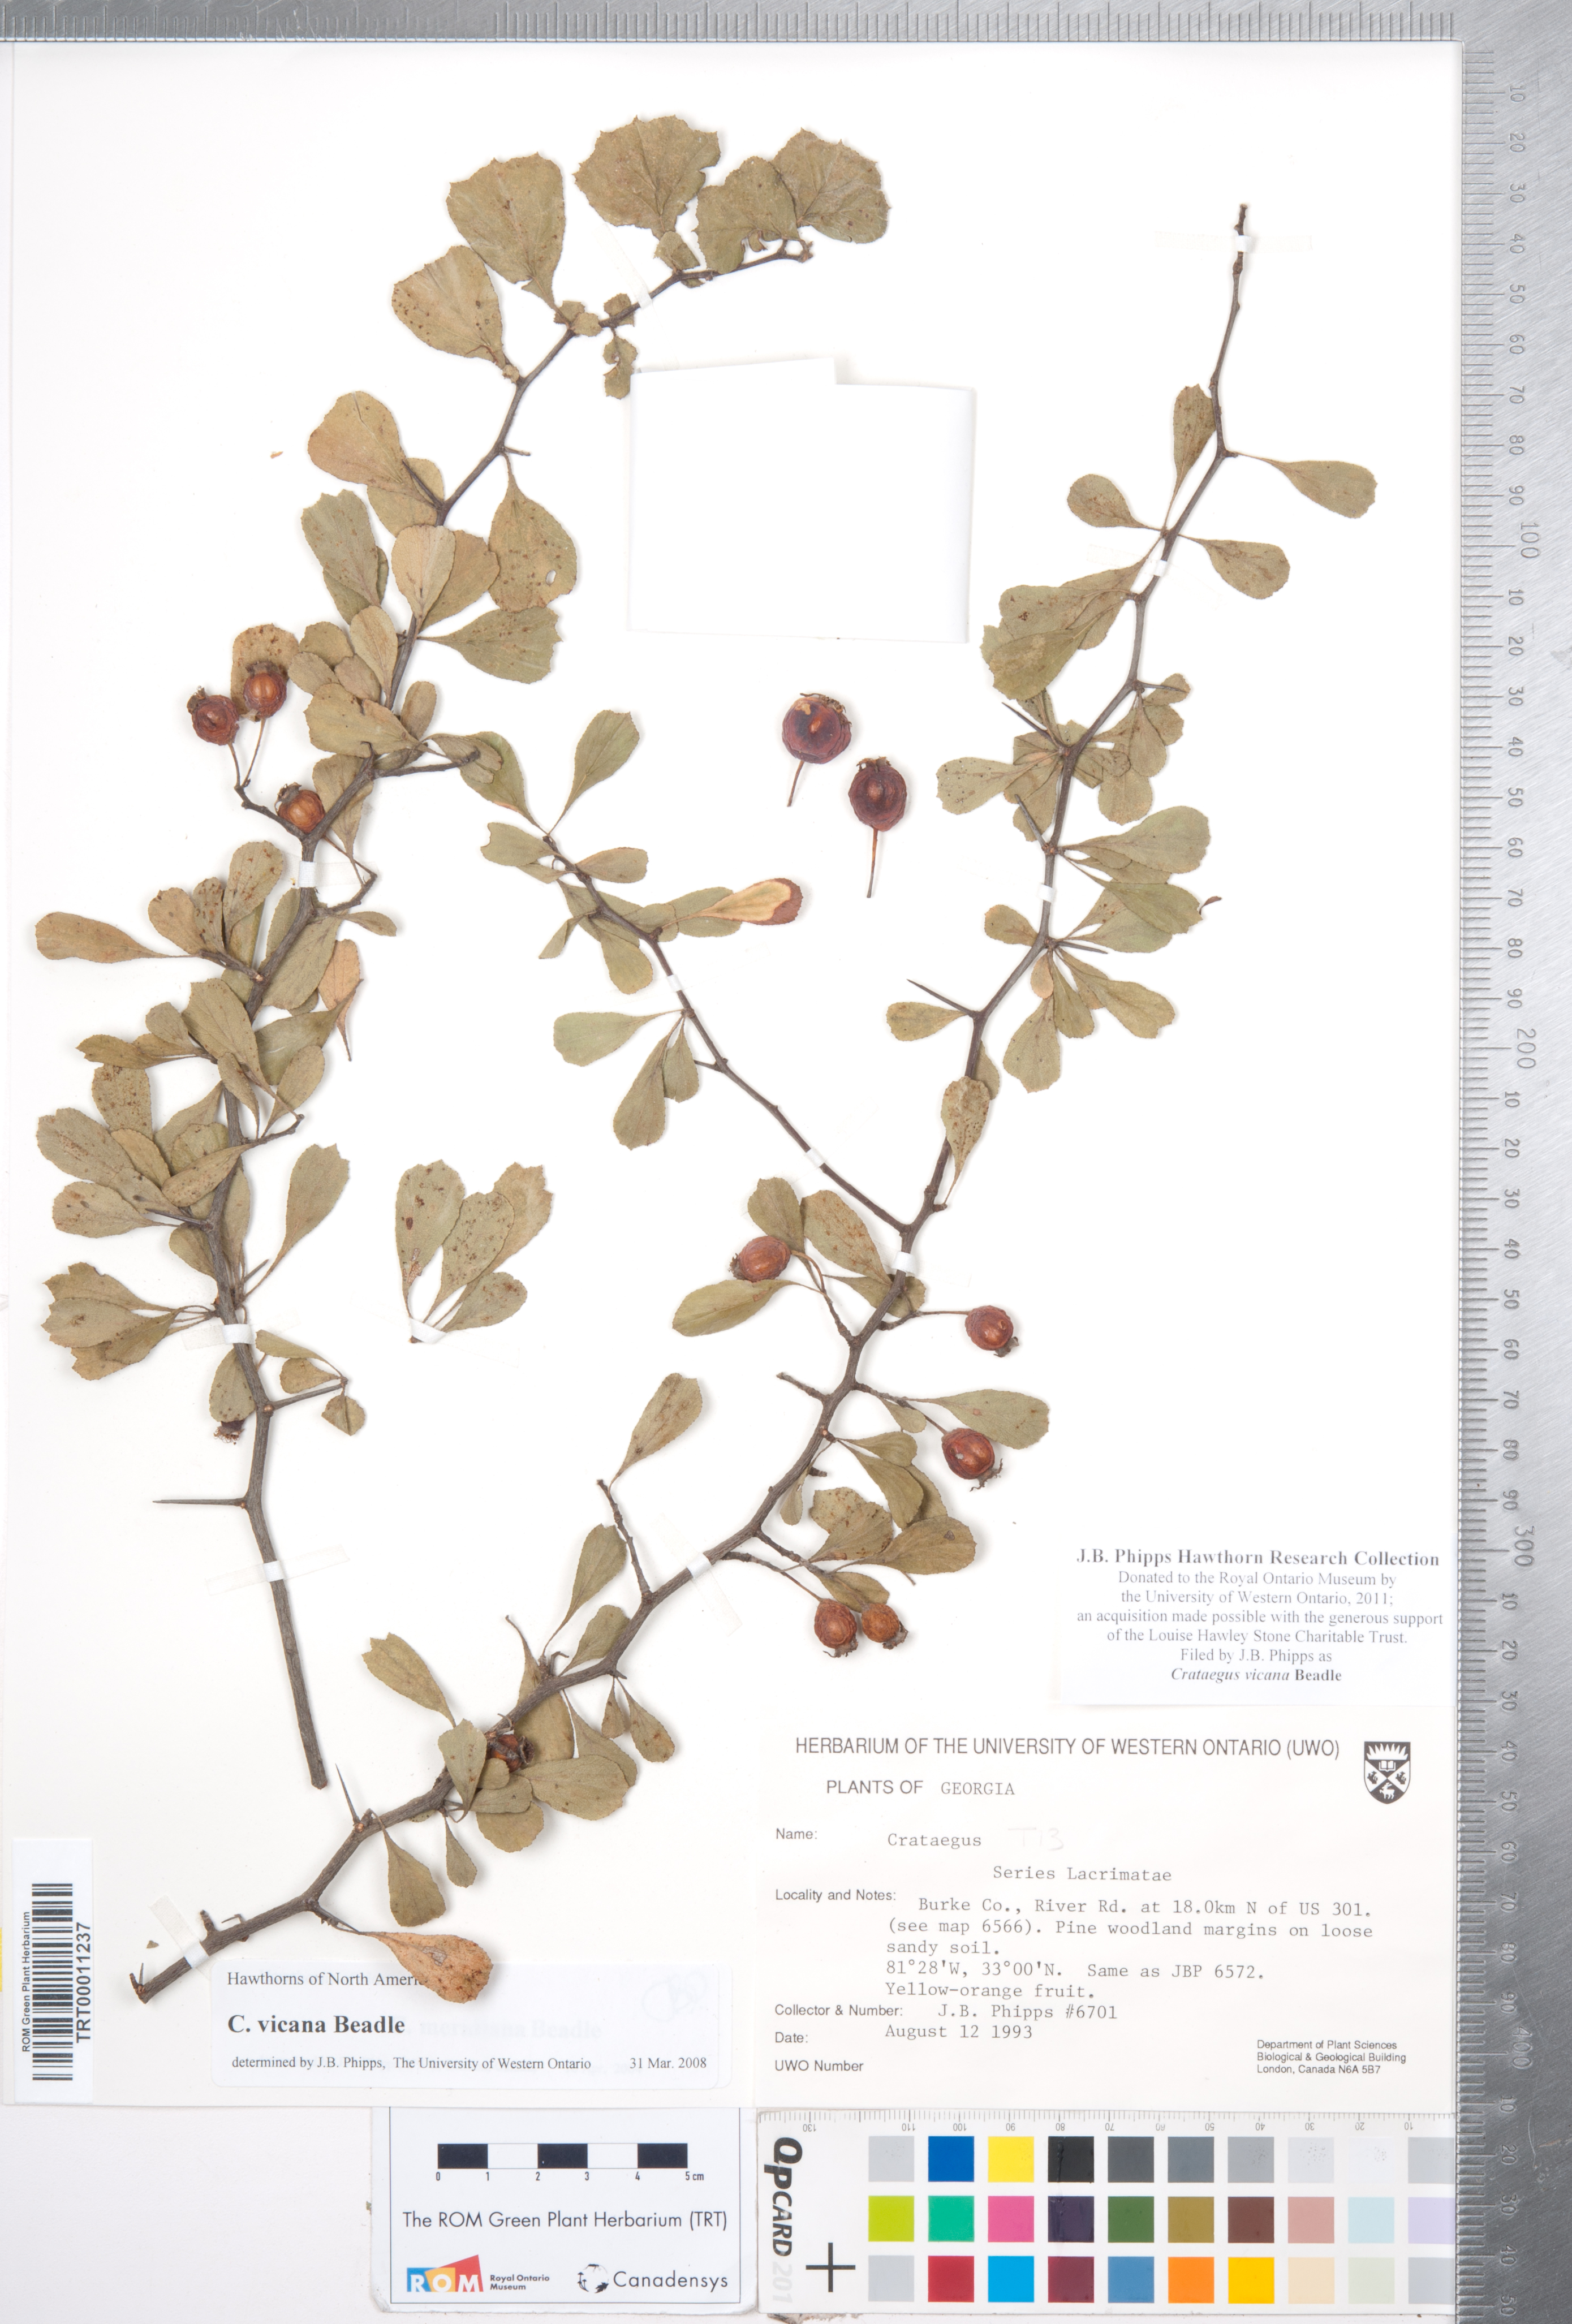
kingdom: Plantae
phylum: Tracheophyta
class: Magnoliopsida
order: Rosales
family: Rosaceae
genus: Crataegus
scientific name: Crataegus lassa
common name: Florida hawthorn
